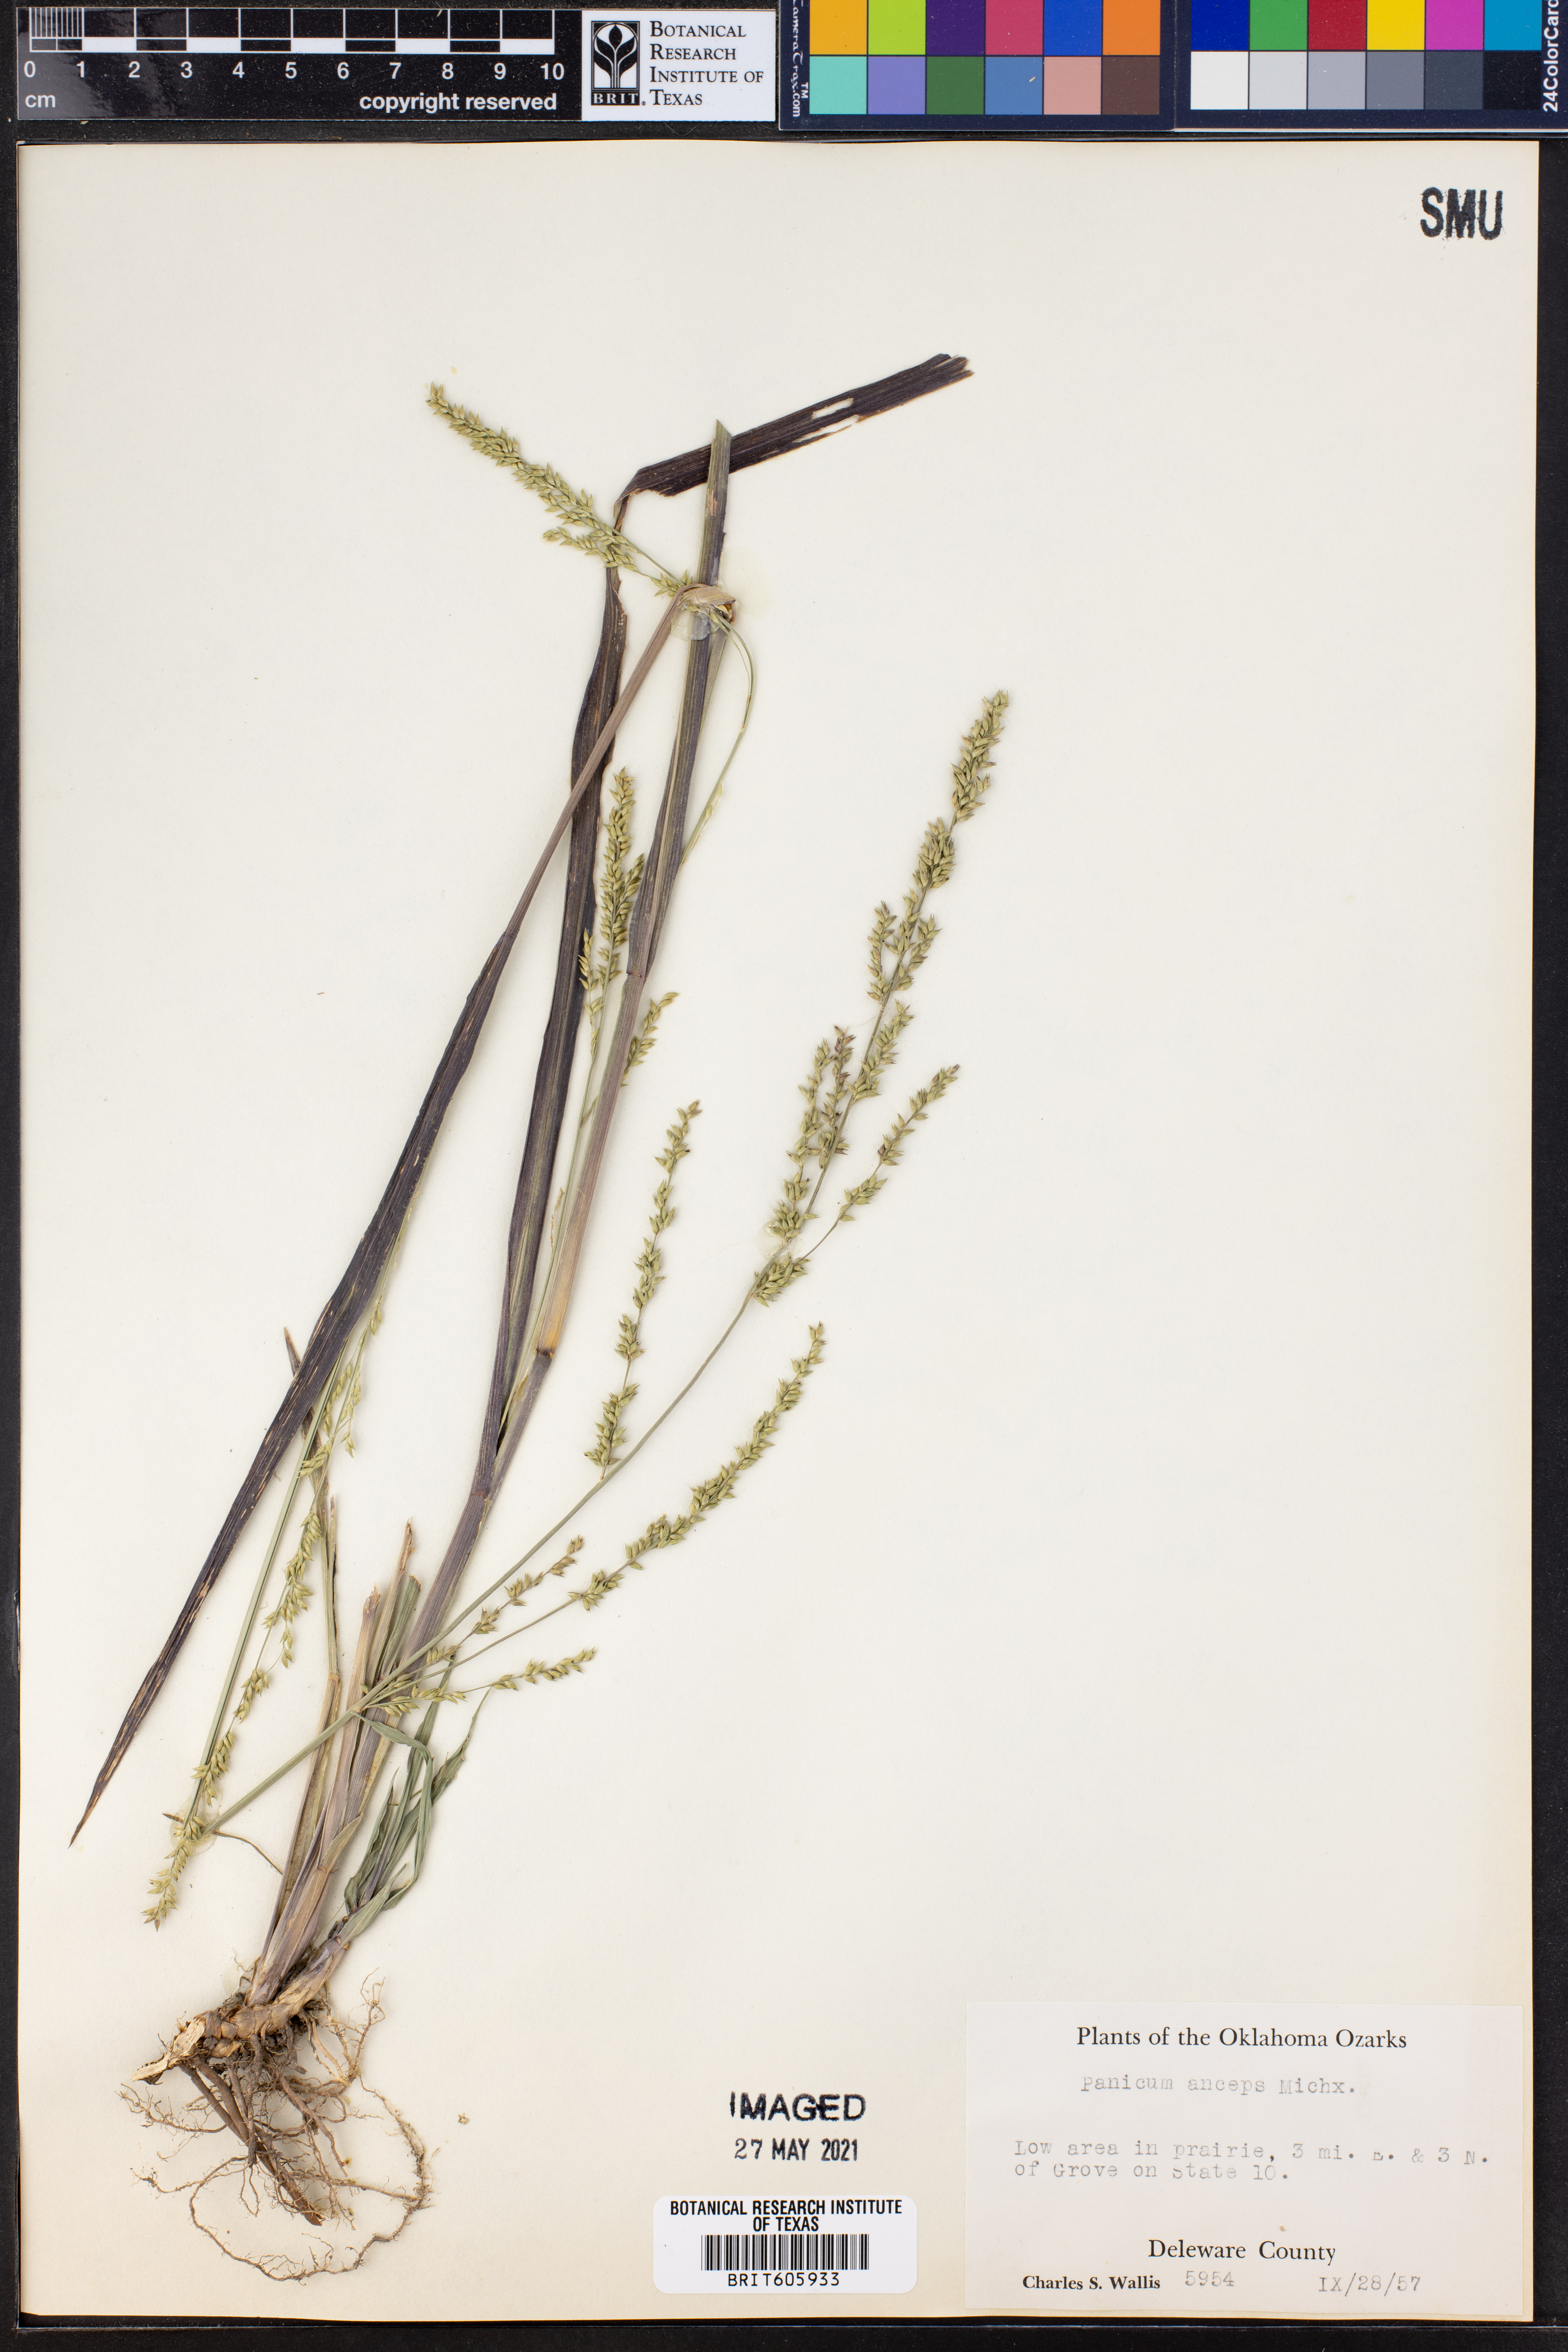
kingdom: Plantae
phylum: Tracheophyta
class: Liliopsida
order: Poales
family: Poaceae
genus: Coleataenia
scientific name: Coleataenia anceps
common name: Beaked panic grass
